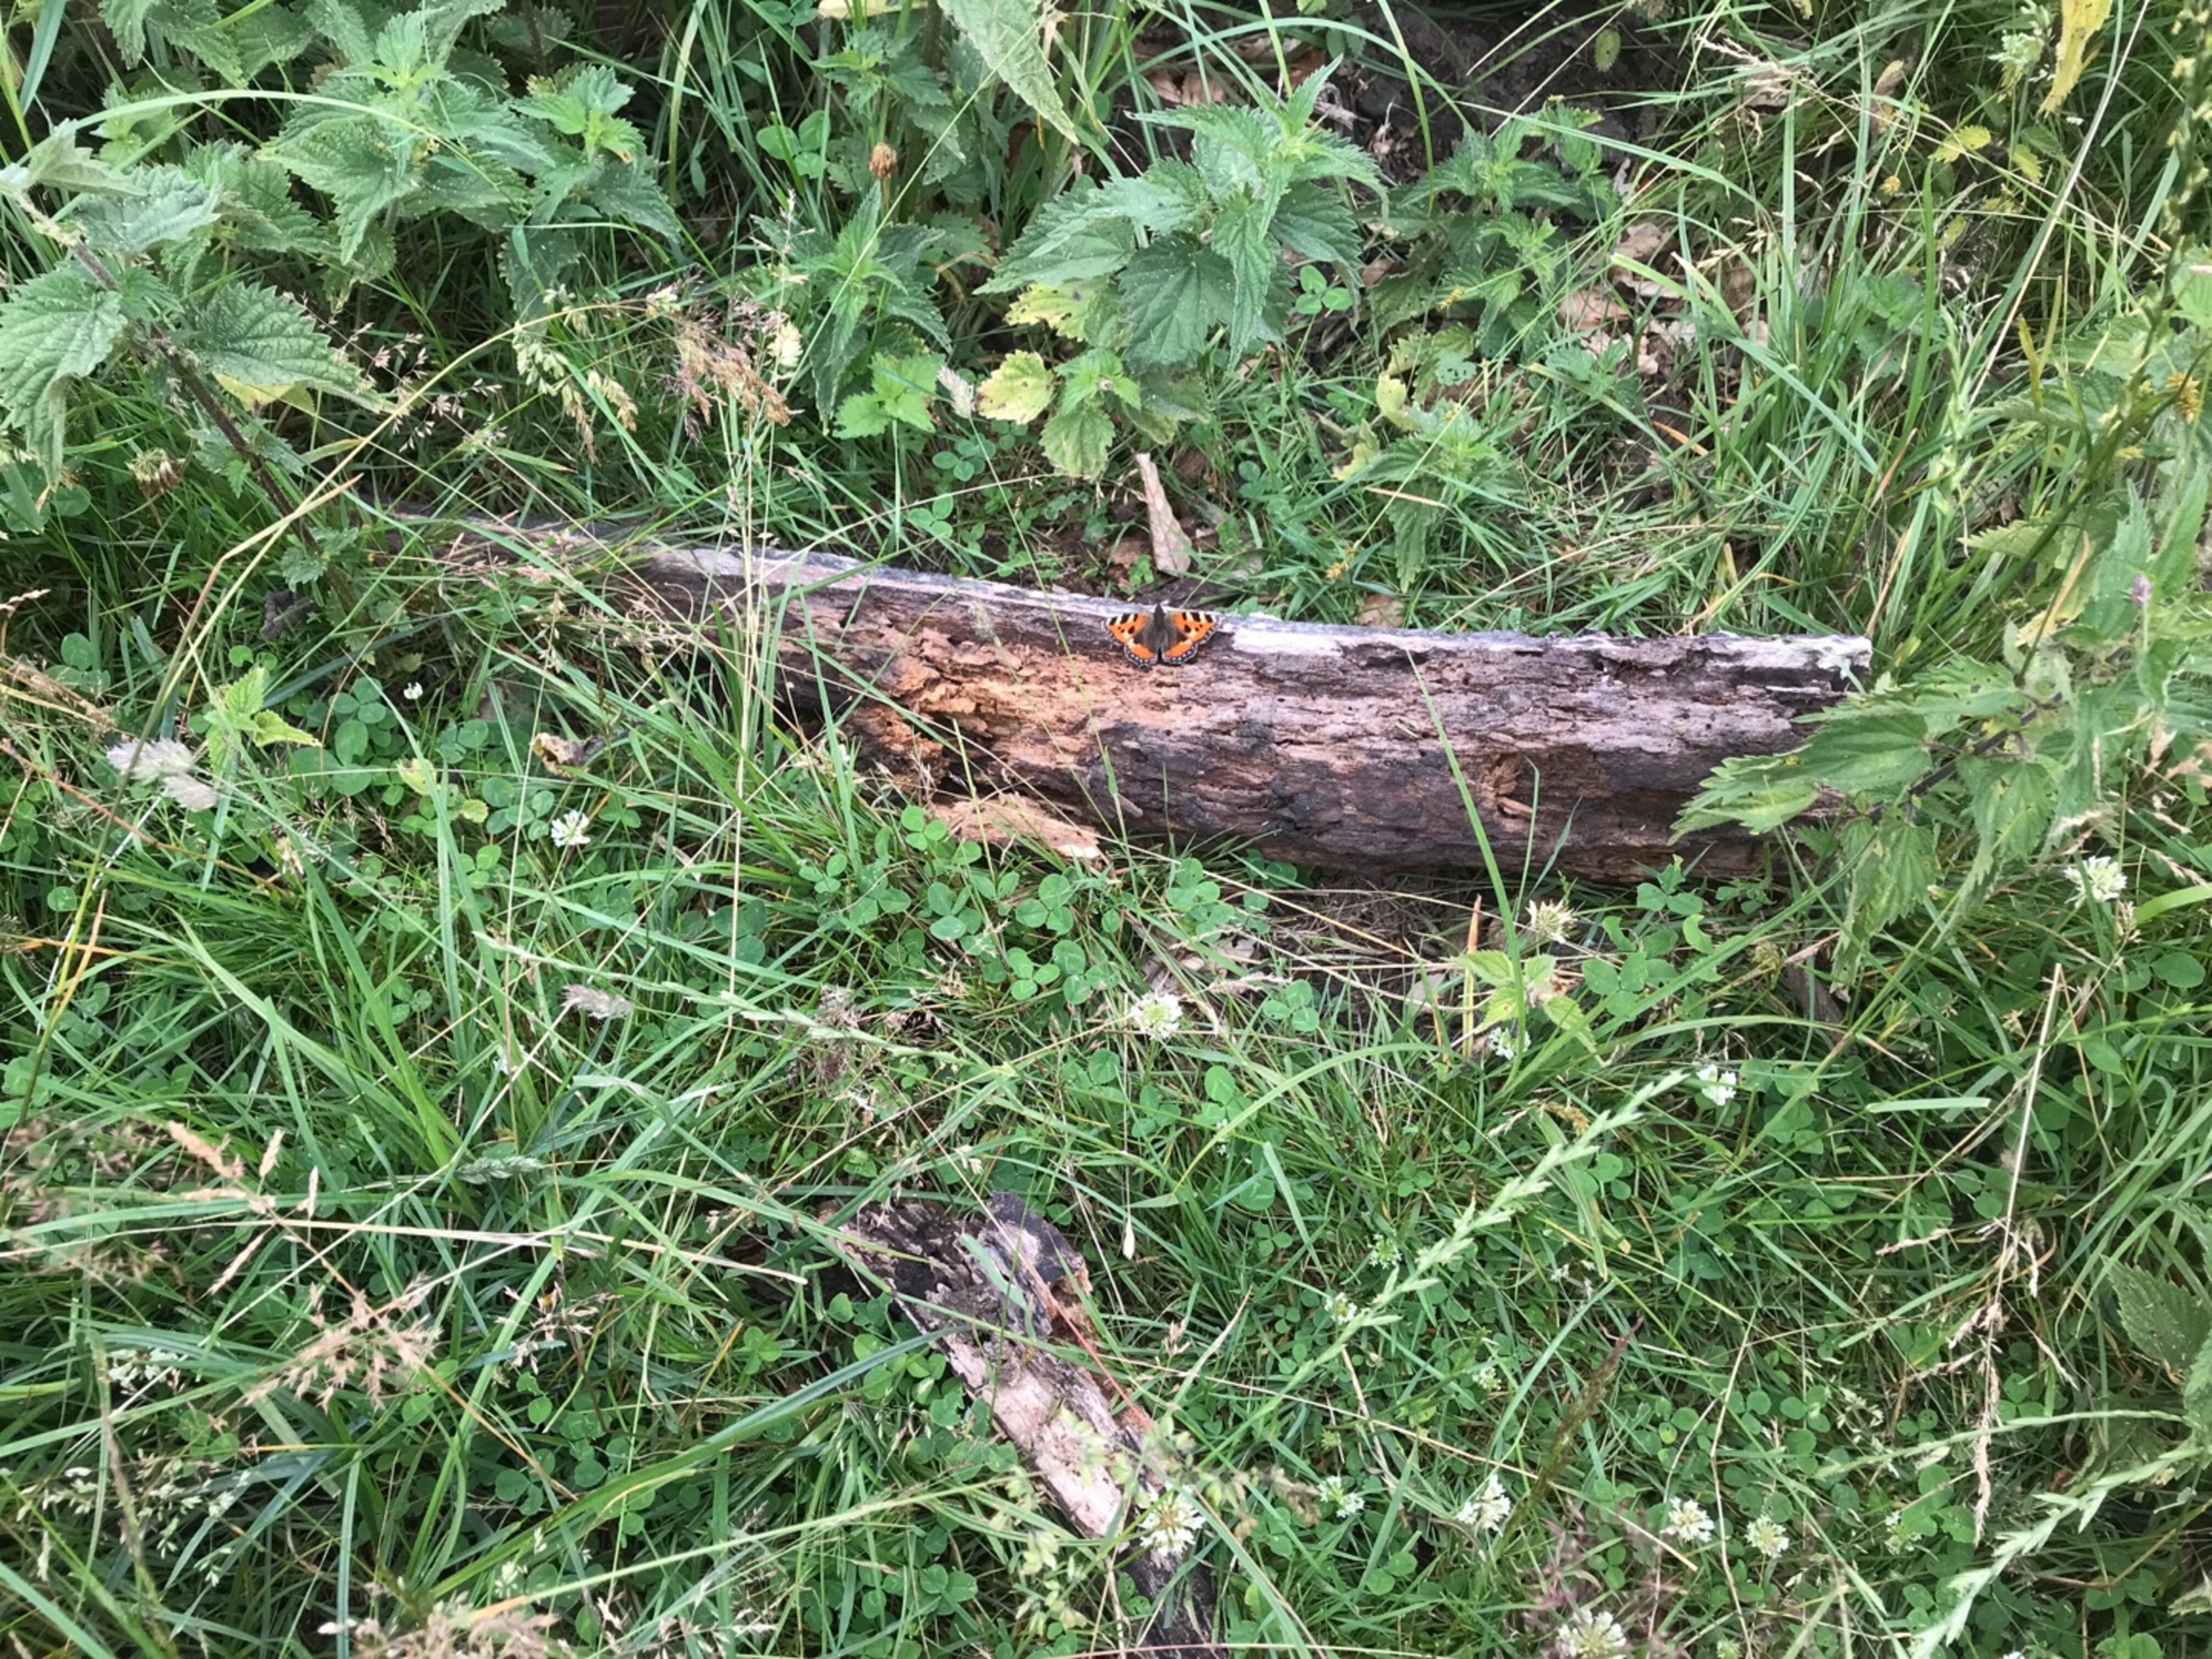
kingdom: Animalia
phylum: Arthropoda
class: Insecta
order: Lepidoptera
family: Nymphalidae
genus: Aglais
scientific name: Aglais urticae
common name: Nældens takvinge
